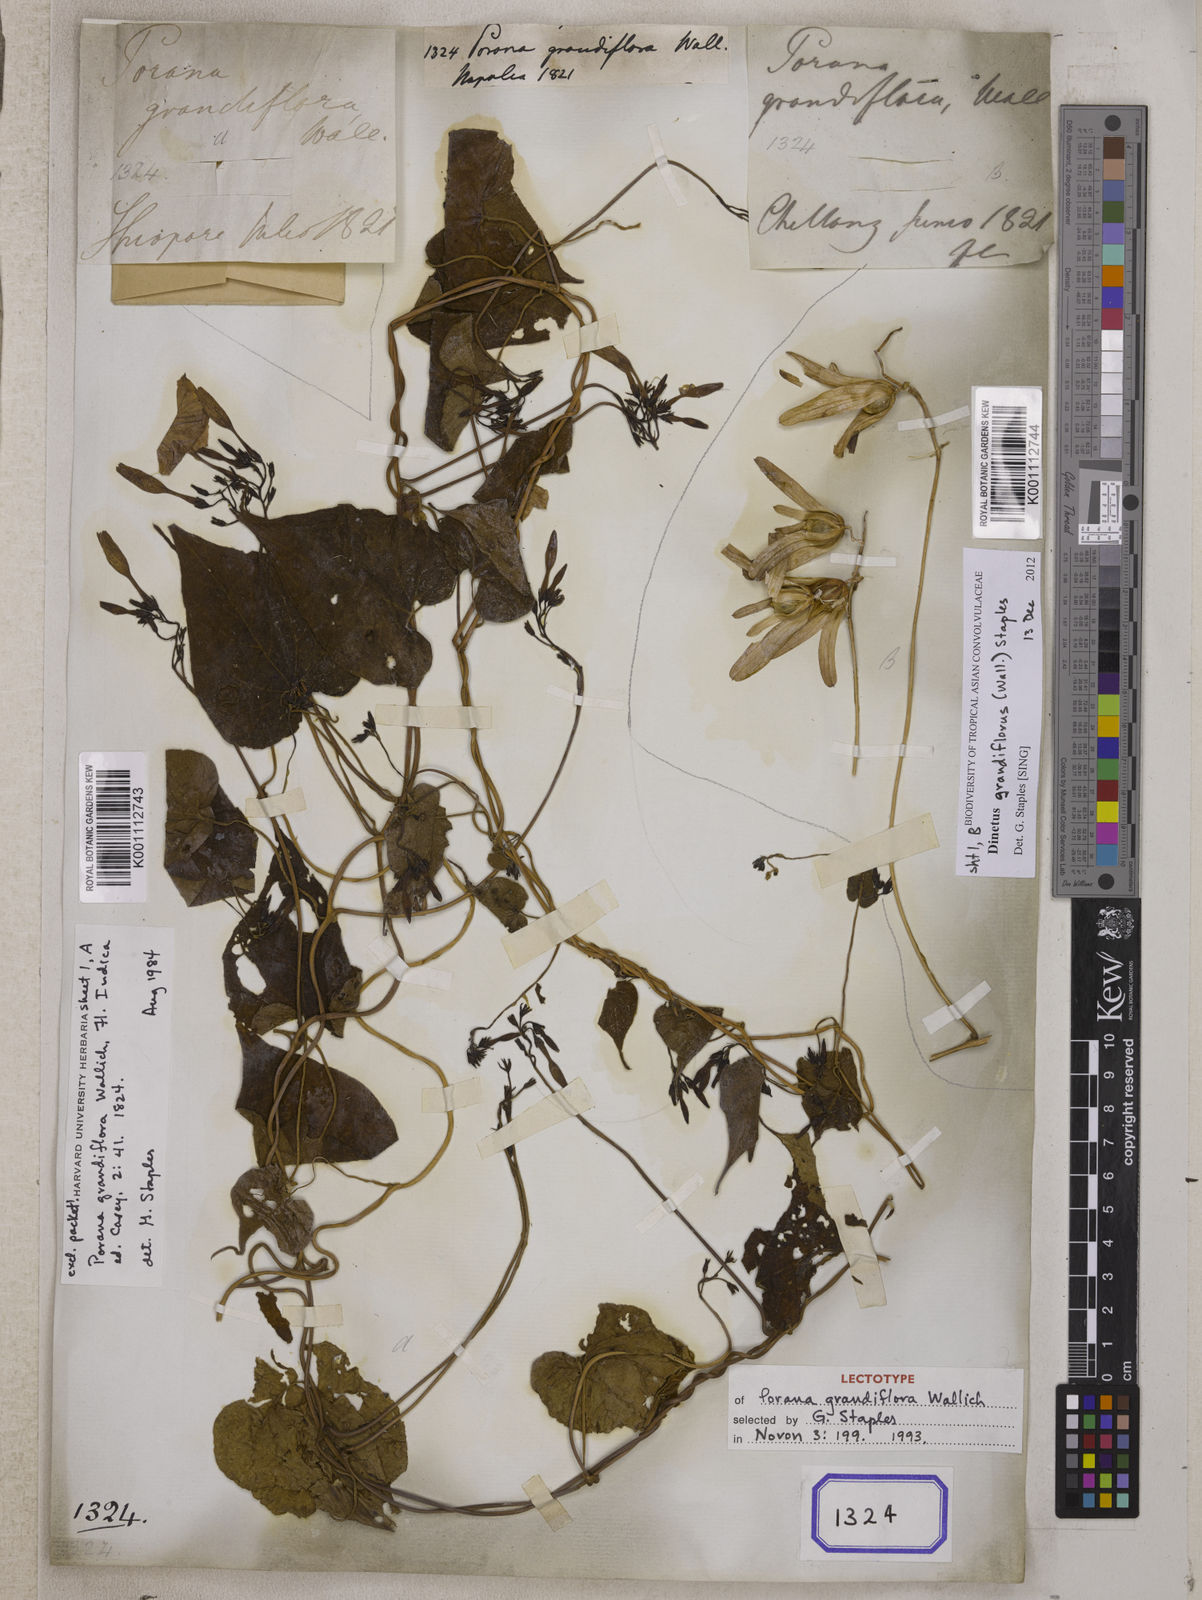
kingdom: Plantae
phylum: Tracheophyta
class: Magnoliopsida
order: Solanales
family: Convolvulaceae
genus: Dinetus
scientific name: Dinetus grandiflorus
